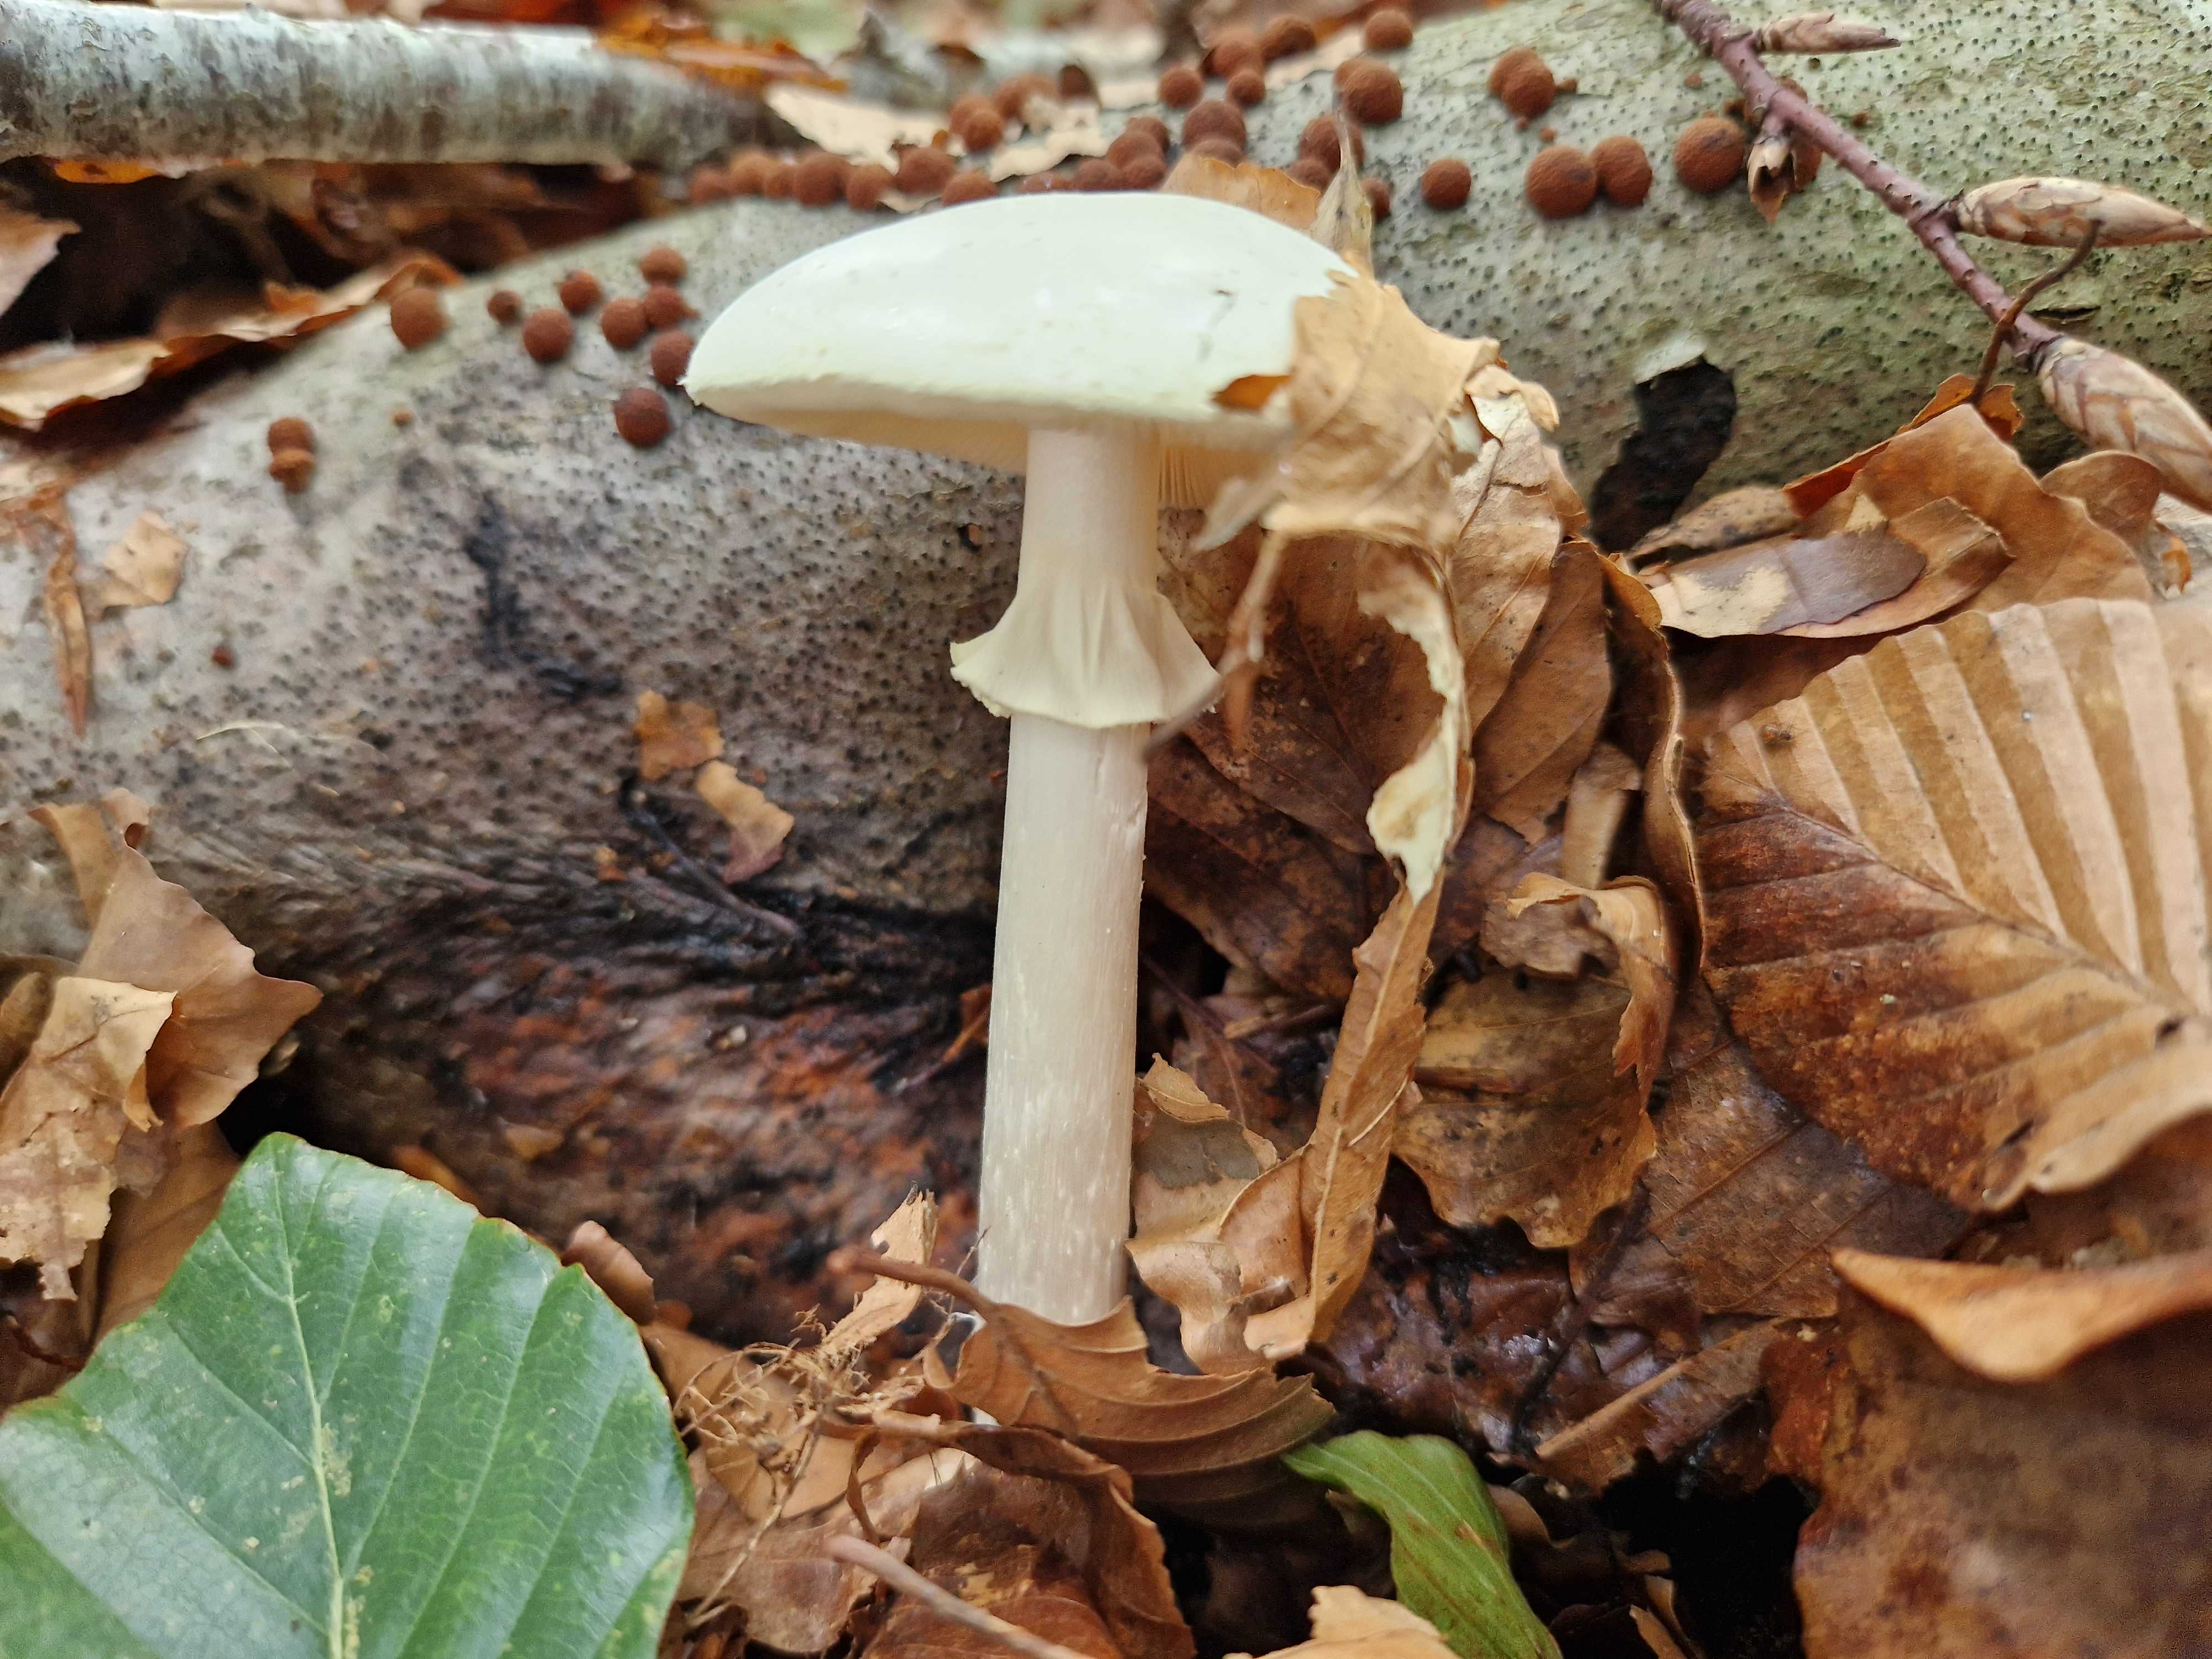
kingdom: Fungi
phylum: Basidiomycota
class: Agaricomycetes
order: Agaricales
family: Amanitaceae
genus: Amanita
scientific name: Amanita citrina
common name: kugleknoldet fluesvamp
